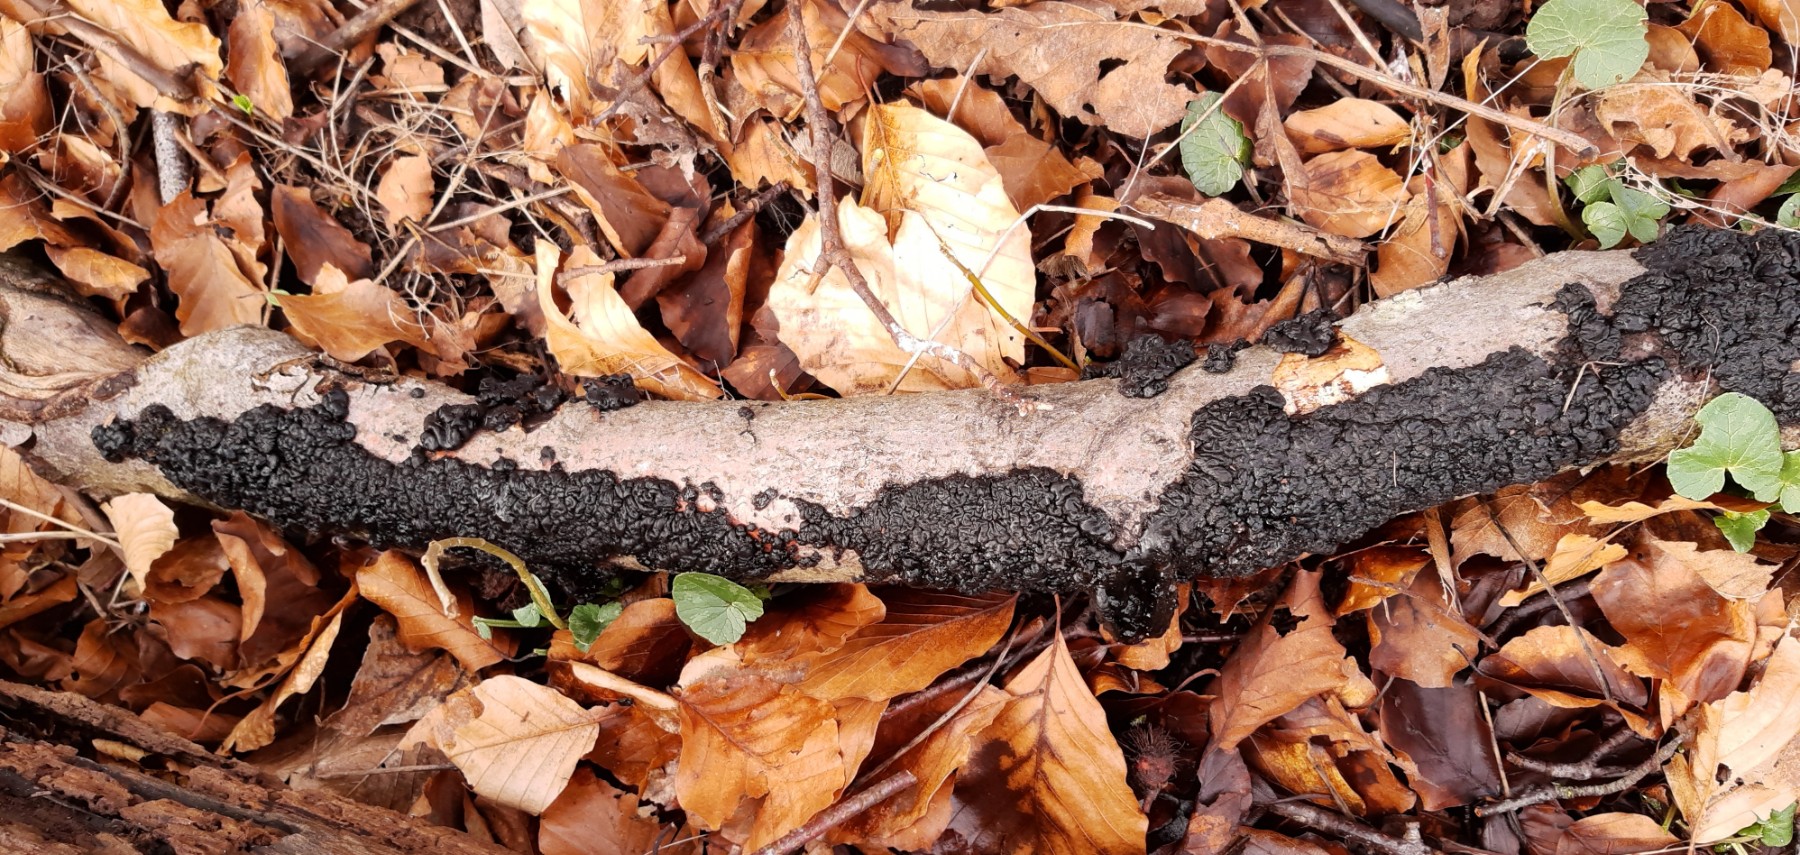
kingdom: Fungi
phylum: Basidiomycota
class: Agaricomycetes
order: Auriculariales
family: Auriculariaceae
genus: Exidia
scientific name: Exidia nigricans
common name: almindelig bævretop
